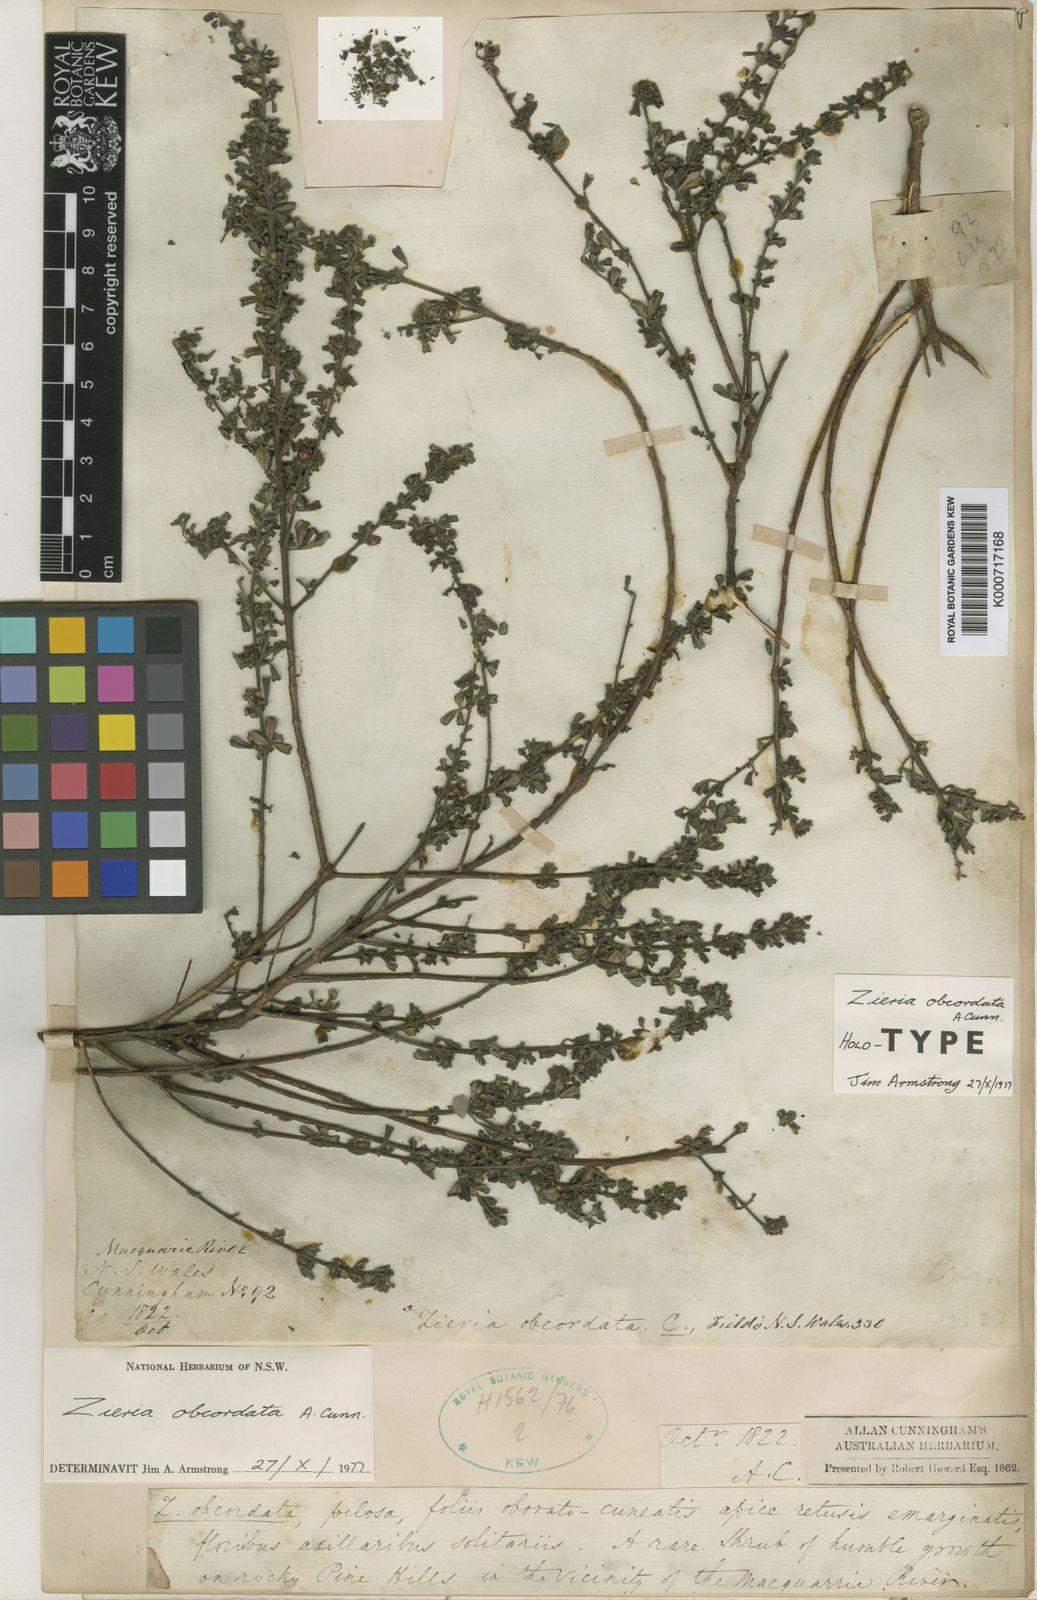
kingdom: Plantae
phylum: Tracheophyta
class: Magnoliopsida
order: Sapindales
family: Rutaceae
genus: Zieria
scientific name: Zieria obcordata
